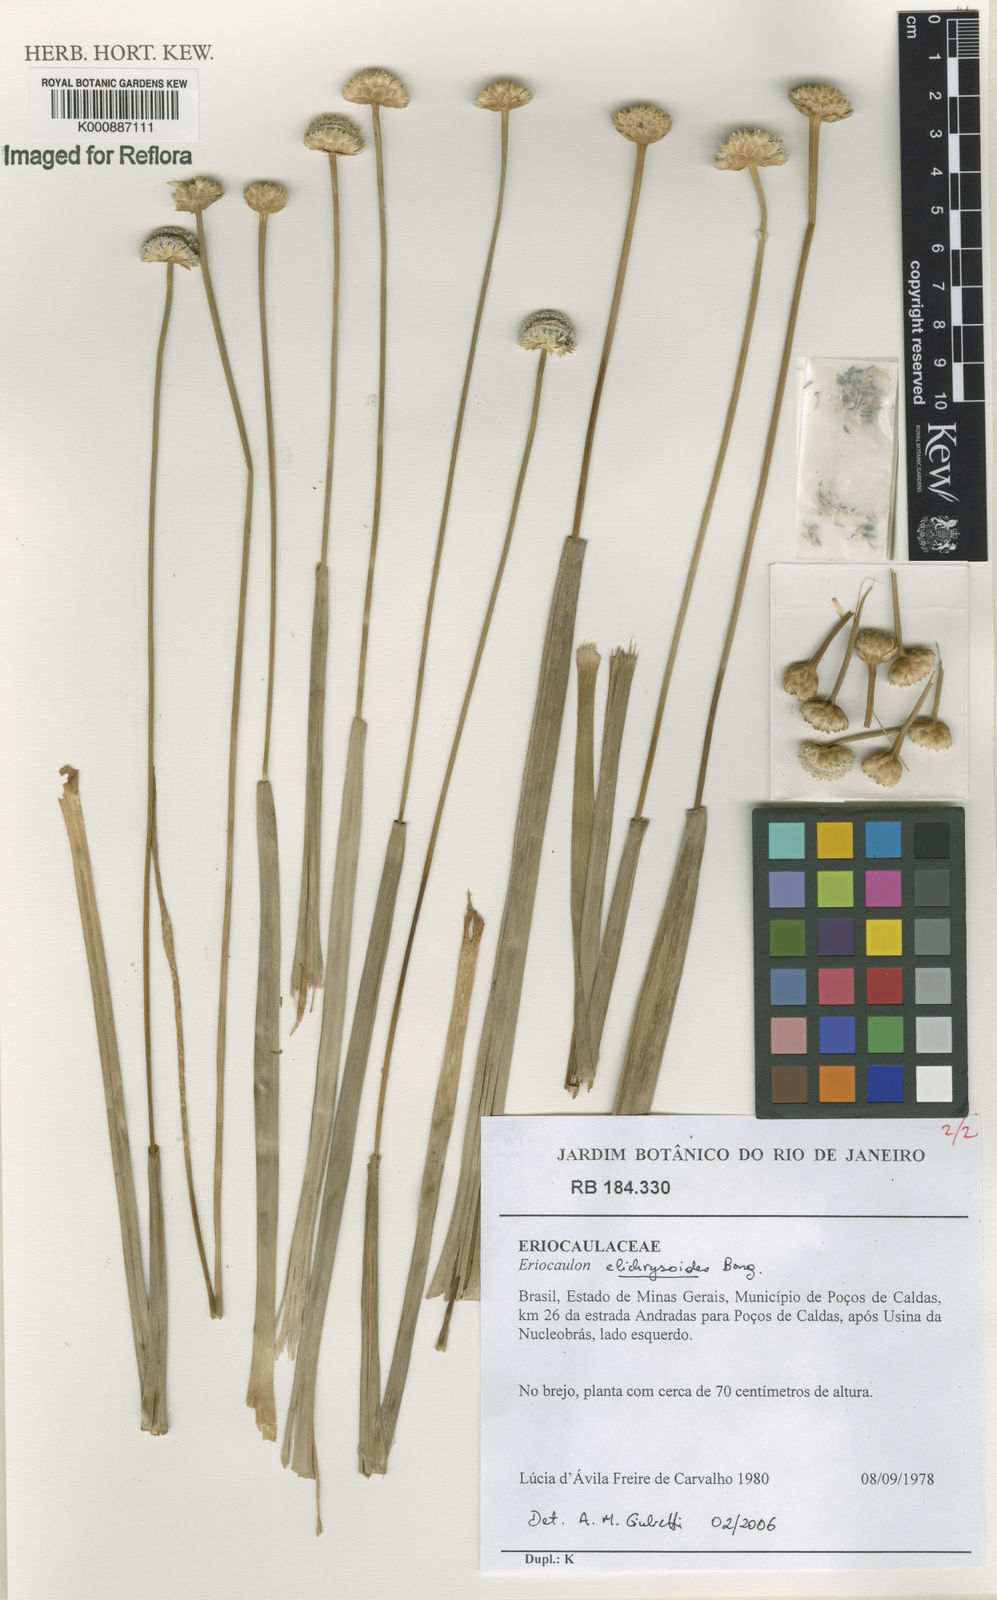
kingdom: Plantae
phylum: Tracheophyta
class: Liliopsida
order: Poales
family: Eriocaulaceae
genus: Paepalanthus
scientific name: Paepalanthus elongatus
